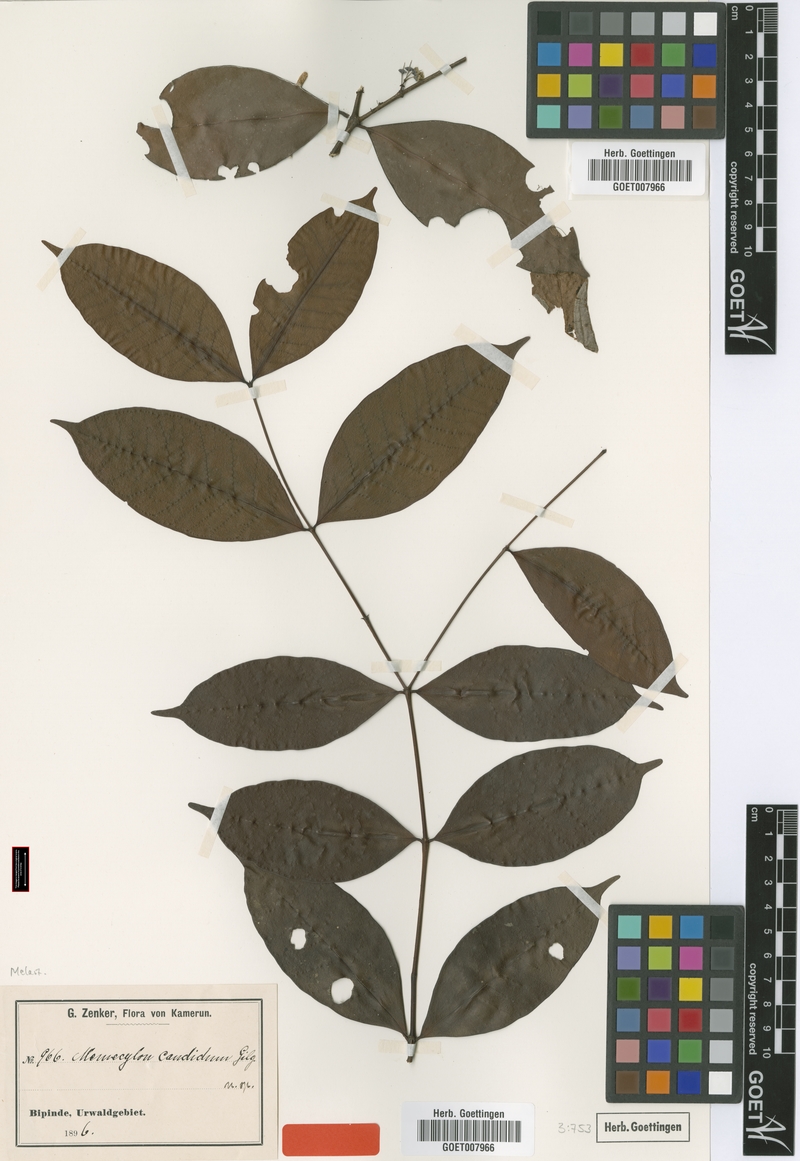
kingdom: Plantae
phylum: Tracheophyta
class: Magnoliopsida
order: Myrtales
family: Melastomataceae
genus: Memecylon
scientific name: Memecylon candidum
